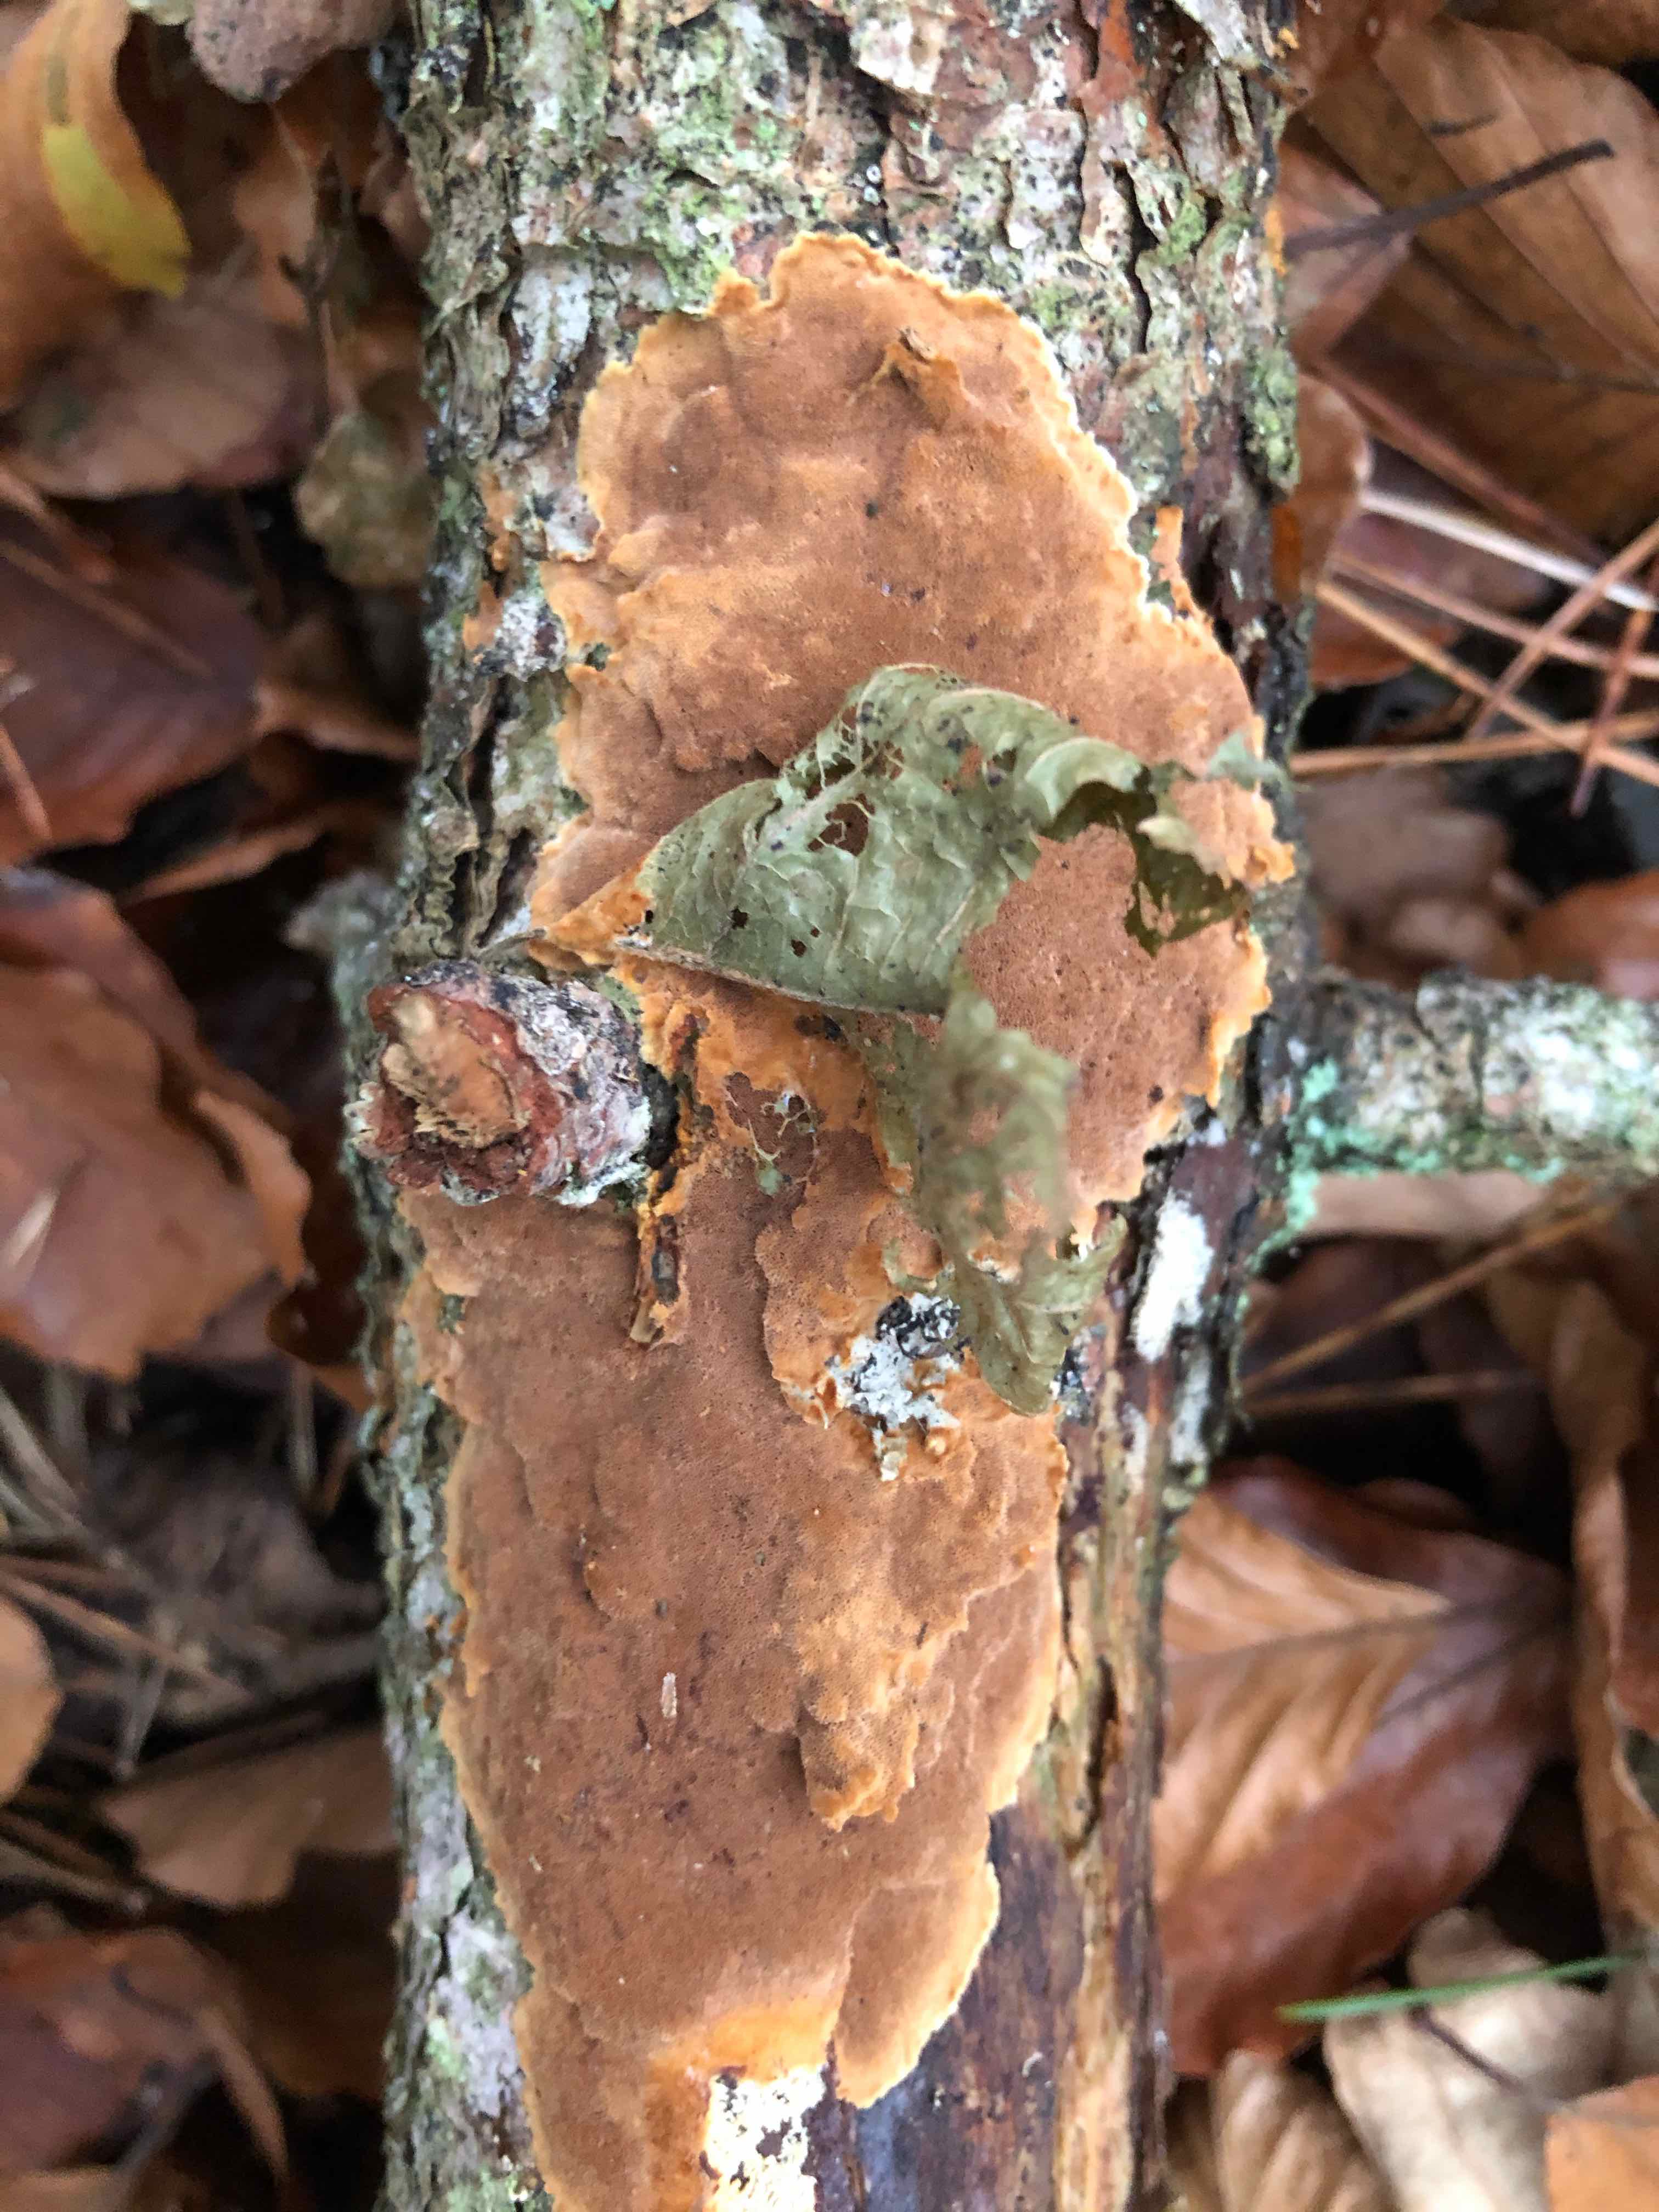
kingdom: Fungi
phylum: Basidiomycota
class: Agaricomycetes
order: Hymenochaetales
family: Hymenochaetaceae
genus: Fuscoporia
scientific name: Fuscoporia ferrea
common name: skorpe-ildporesvamp
